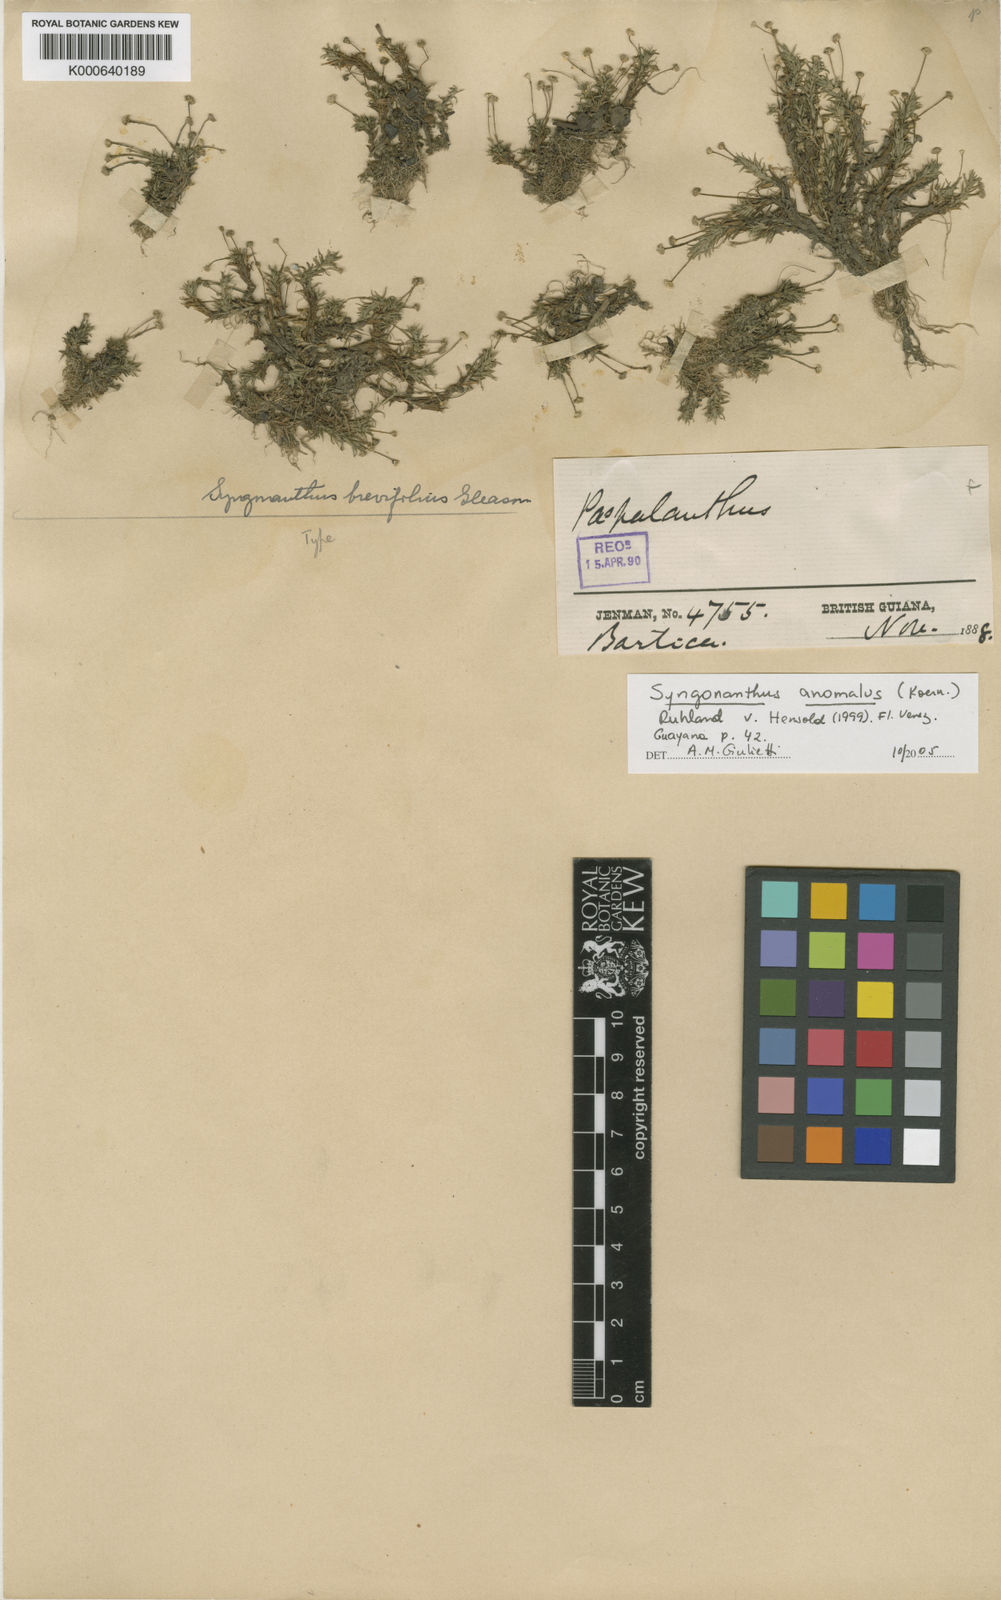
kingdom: Plantae
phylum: Tracheophyta
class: Liliopsida
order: Poales
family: Eriocaulaceae
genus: Syngonanthus
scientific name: Syngonanthus
